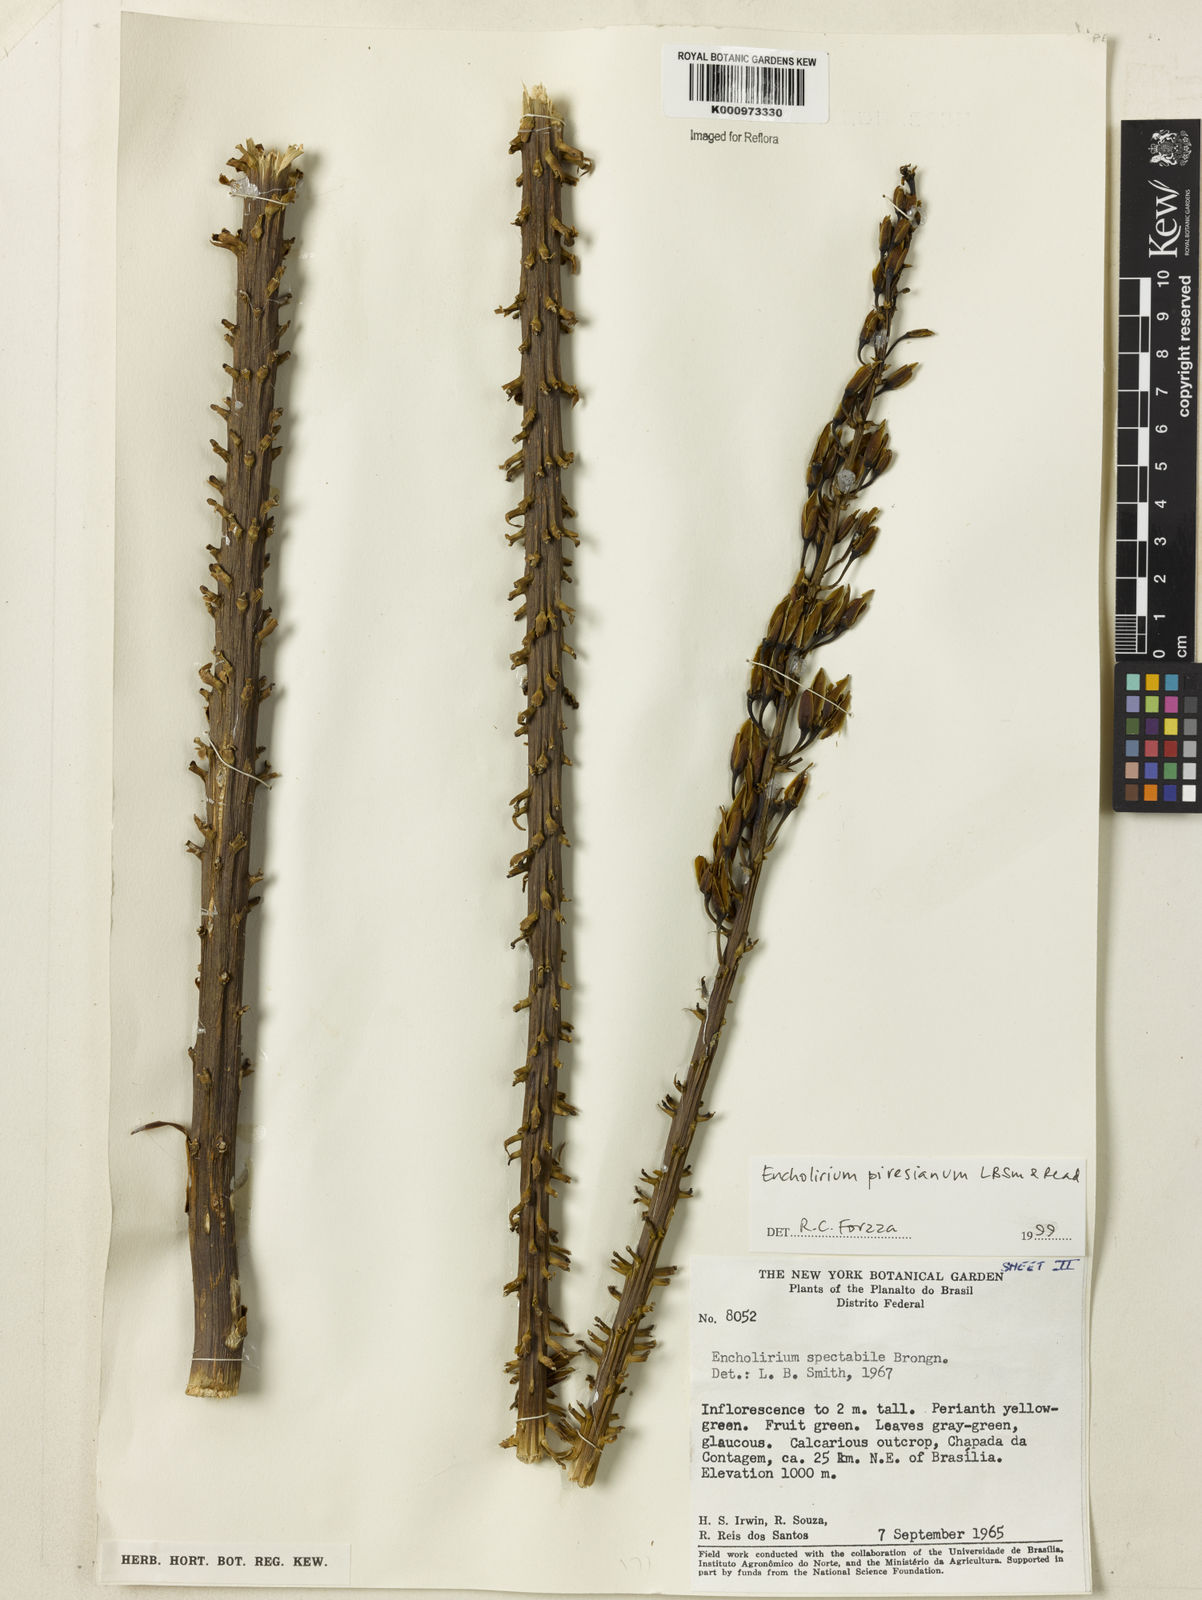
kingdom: Plantae
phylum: Tracheophyta
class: Liliopsida
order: Poales
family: Bromeliaceae
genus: Encholirium
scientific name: Encholirium luxor
